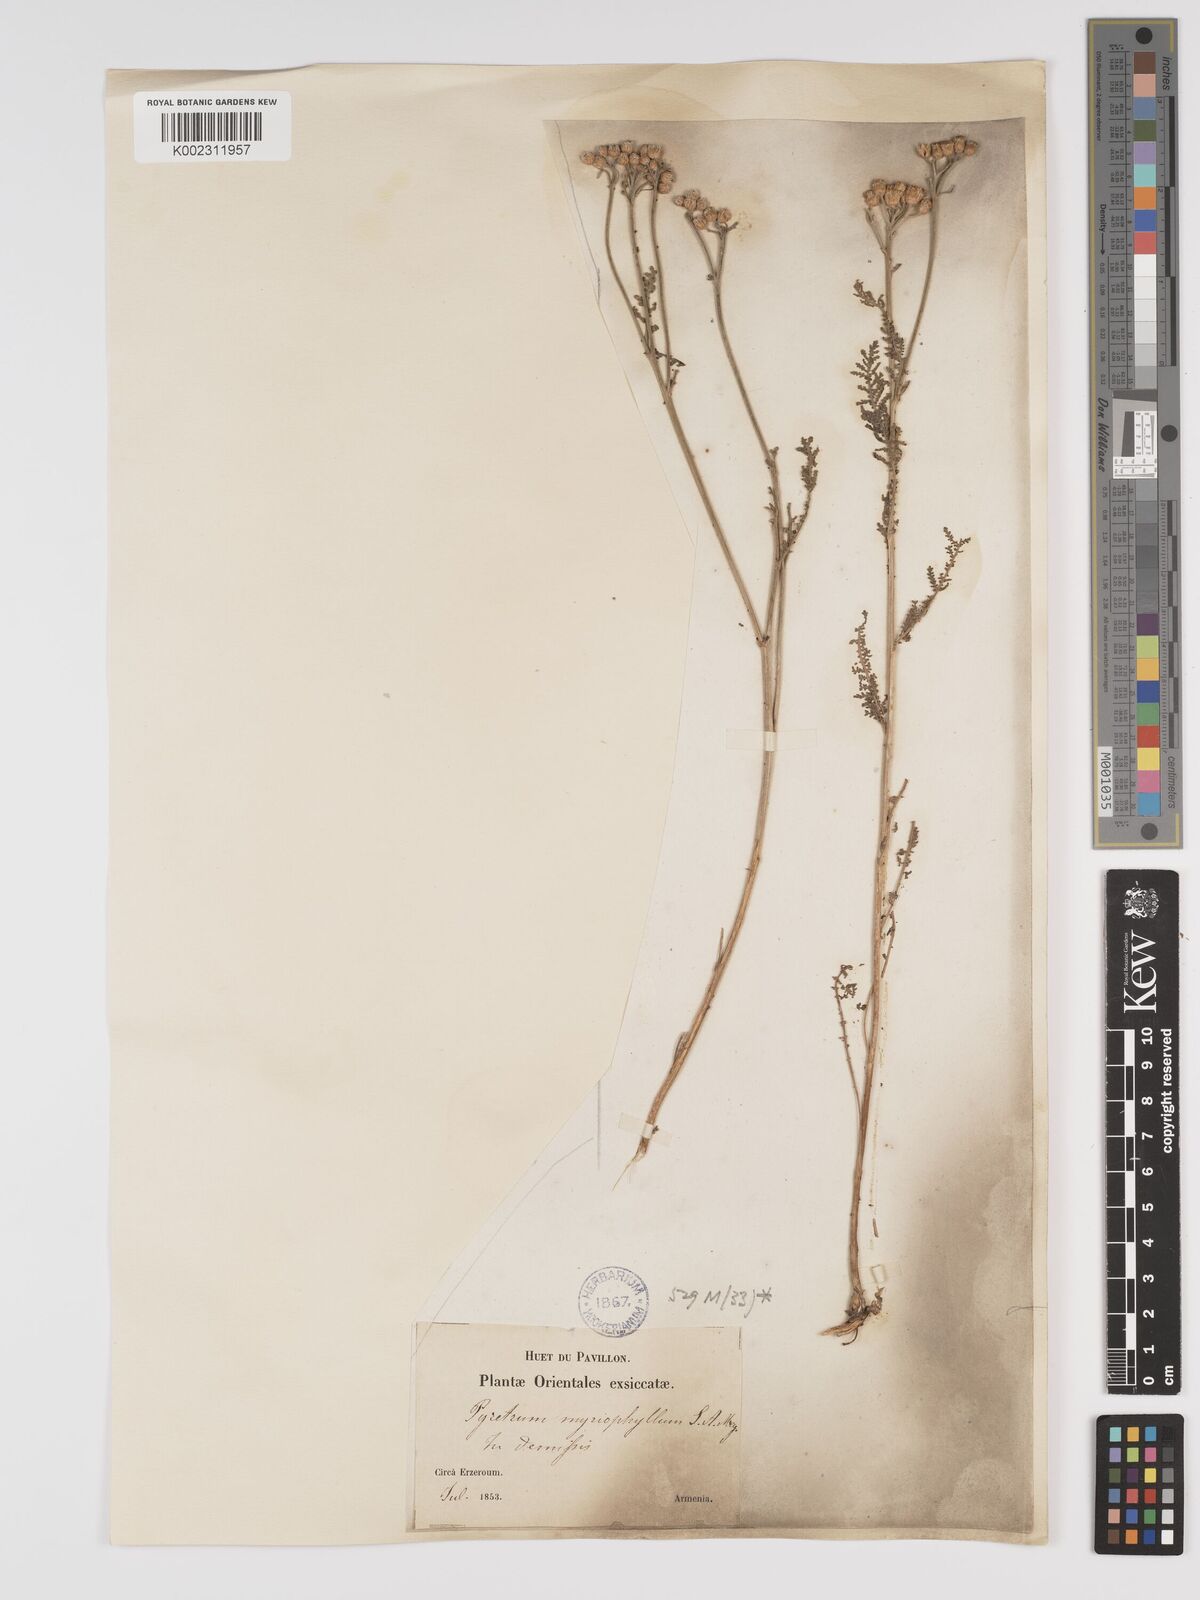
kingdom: Plantae
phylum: Tracheophyta
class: Magnoliopsida
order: Asterales
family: Asteraceae
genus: Tanacetum
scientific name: Tanacetum polycephalum
